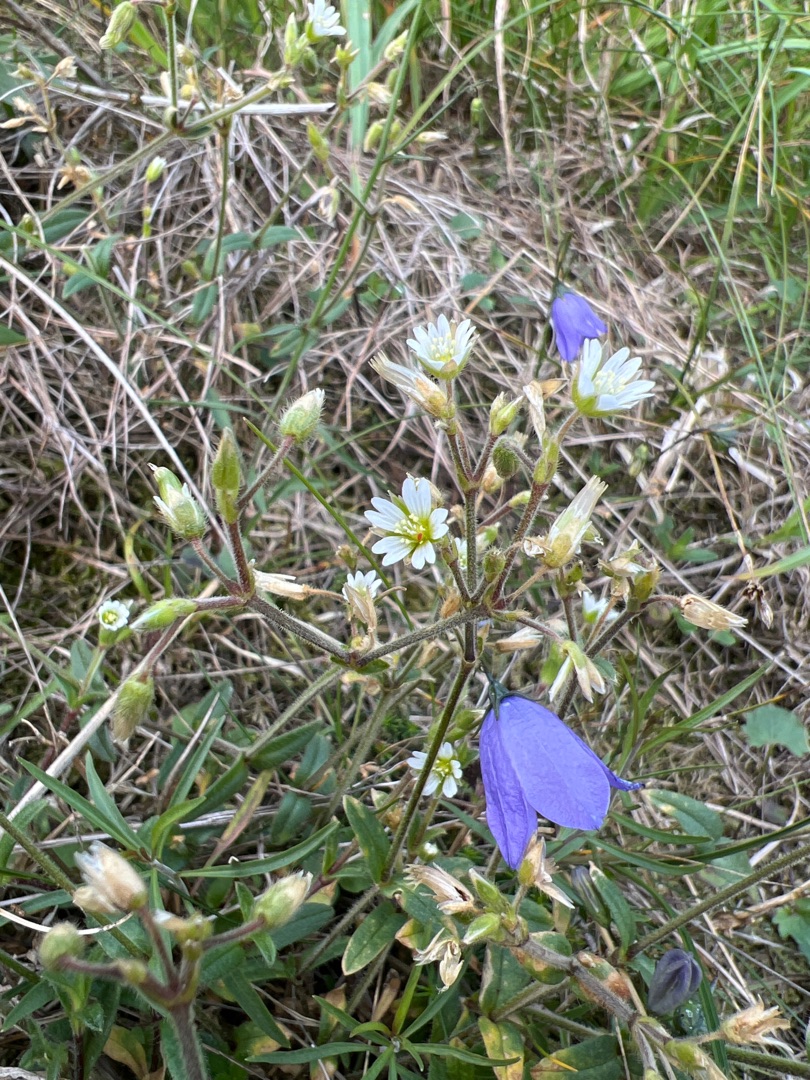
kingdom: Plantae
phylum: Tracheophyta
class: Magnoliopsida
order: Caryophyllales
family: Caryophyllaceae
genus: Cerastium
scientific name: Cerastium fontanum
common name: Almindelig hønsetarm
